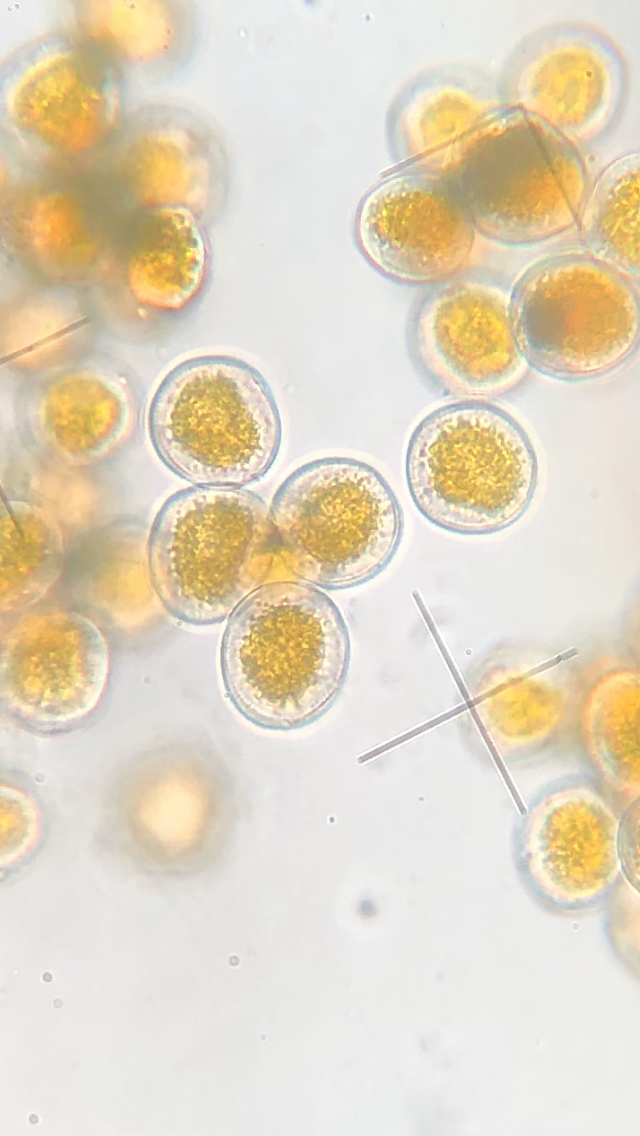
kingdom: Fungi
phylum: Basidiomycota
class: Pucciniomycetes
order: Pucciniales
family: Pucciniaceae
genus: Puccinia
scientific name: Puccinia coronata
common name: Crown rust
